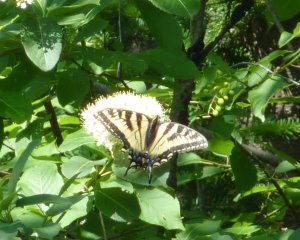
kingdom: Animalia
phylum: Arthropoda
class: Insecta
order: Lepidoptera
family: Papilionidae
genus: Pterourus
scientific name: Pterourus canadensis
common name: Canadian Tiger Swallowtail
